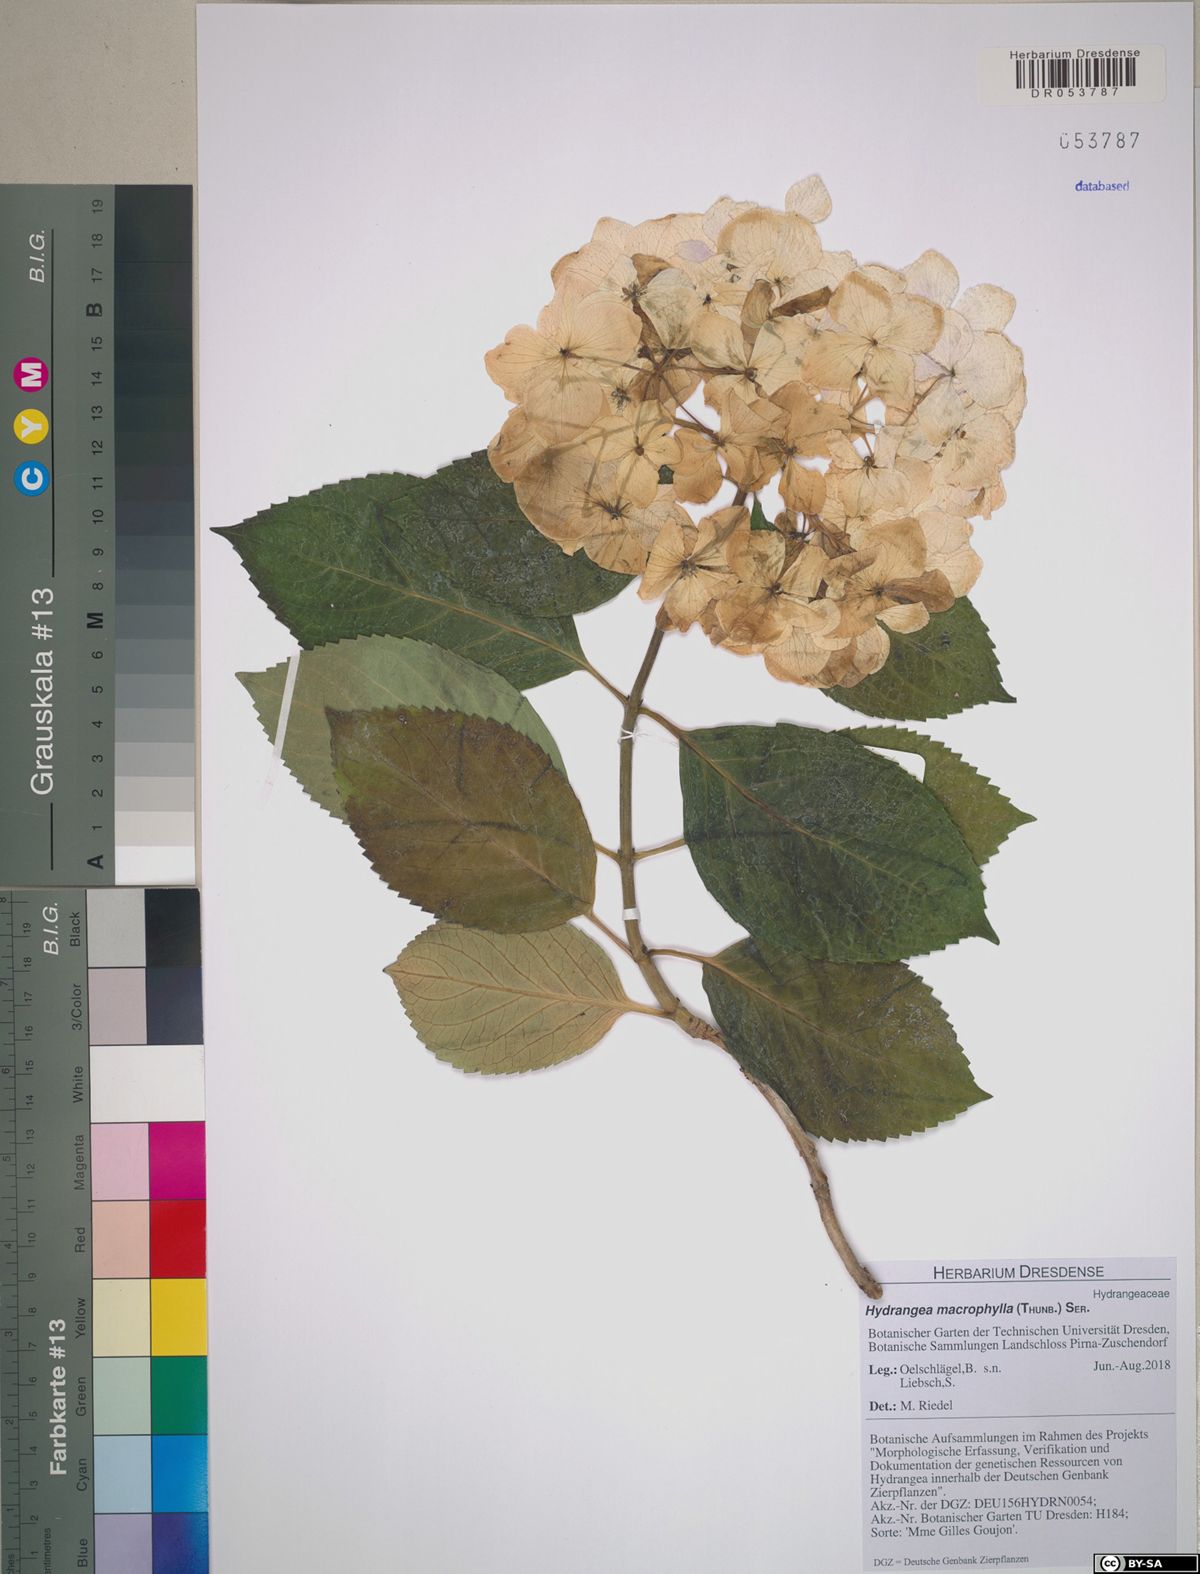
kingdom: Plantae
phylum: Tracheophyta
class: Magnoliopsida
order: Cornales
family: Hydrangeaceae
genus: Hydrangea
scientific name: Hydrangea macrophylla
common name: Hydrangea
